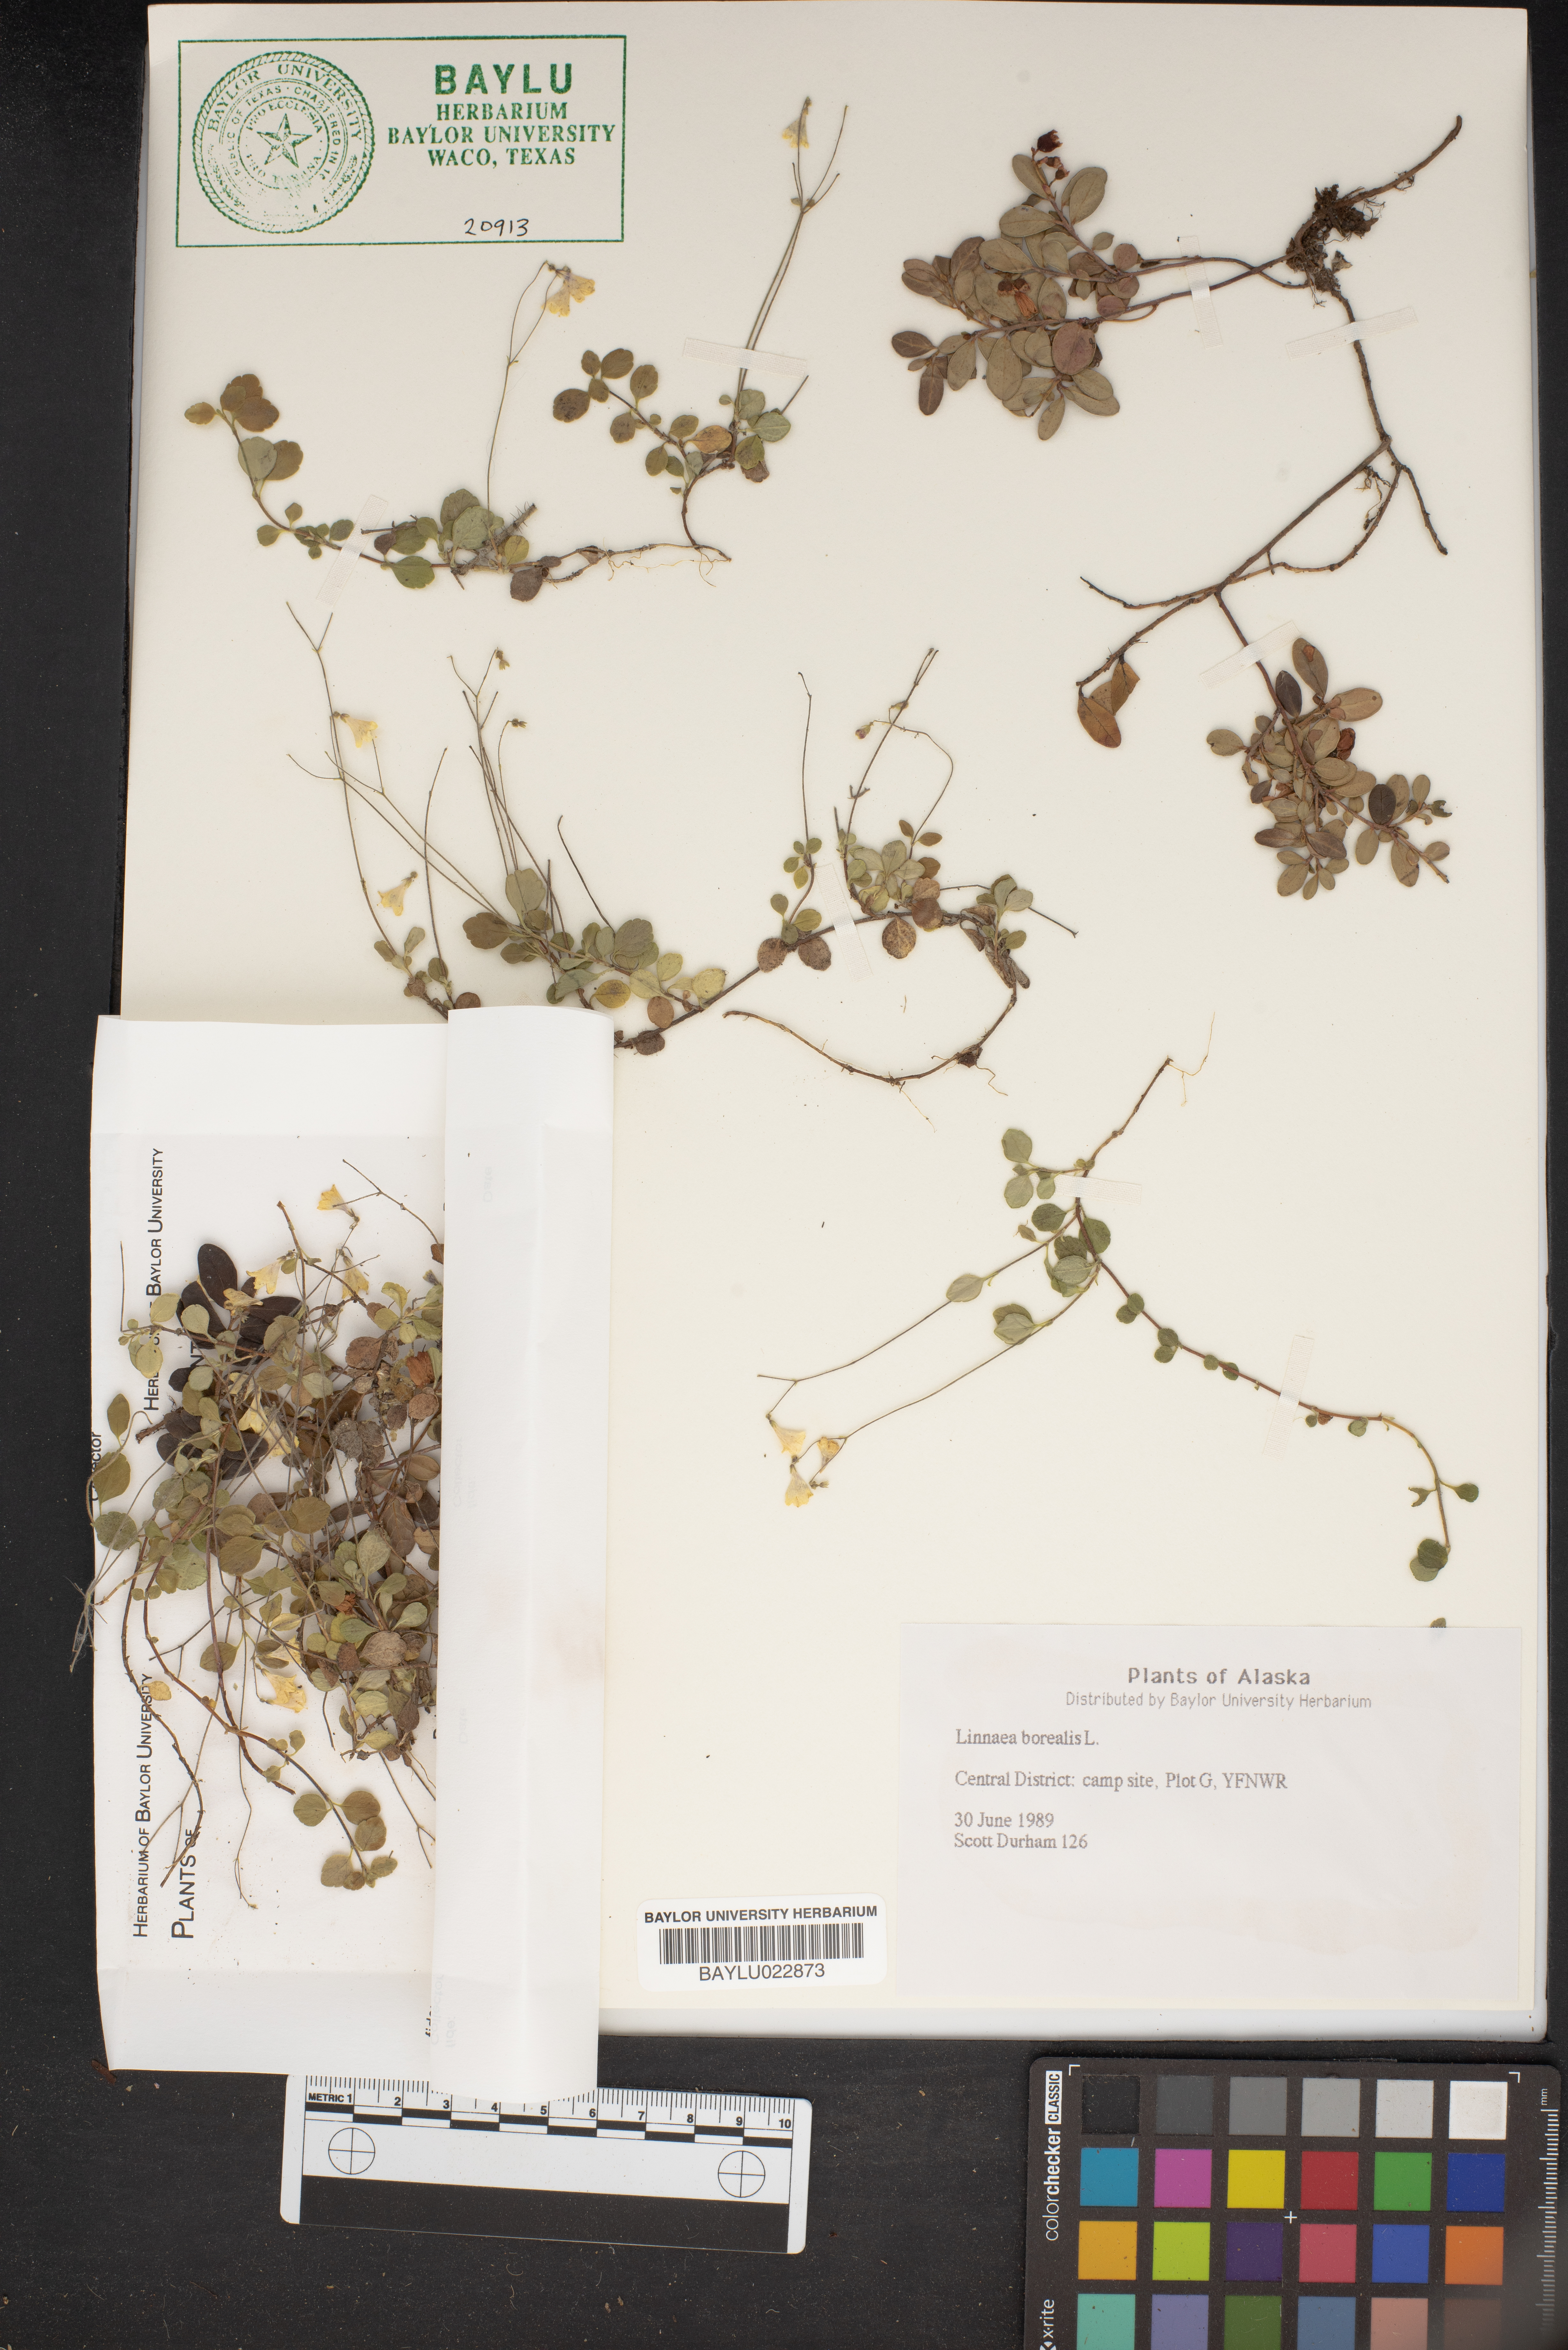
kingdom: Plantae
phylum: Tracheophyta
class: Magnoliopsida
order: Dipsacales
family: Caprifoliaceae
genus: Linnaea
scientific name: Linnaea borealis
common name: Twinflower
